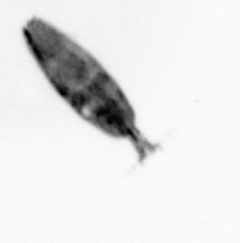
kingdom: Animalia
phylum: Arthropoda
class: Maxillopoda
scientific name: Maxillopoda
